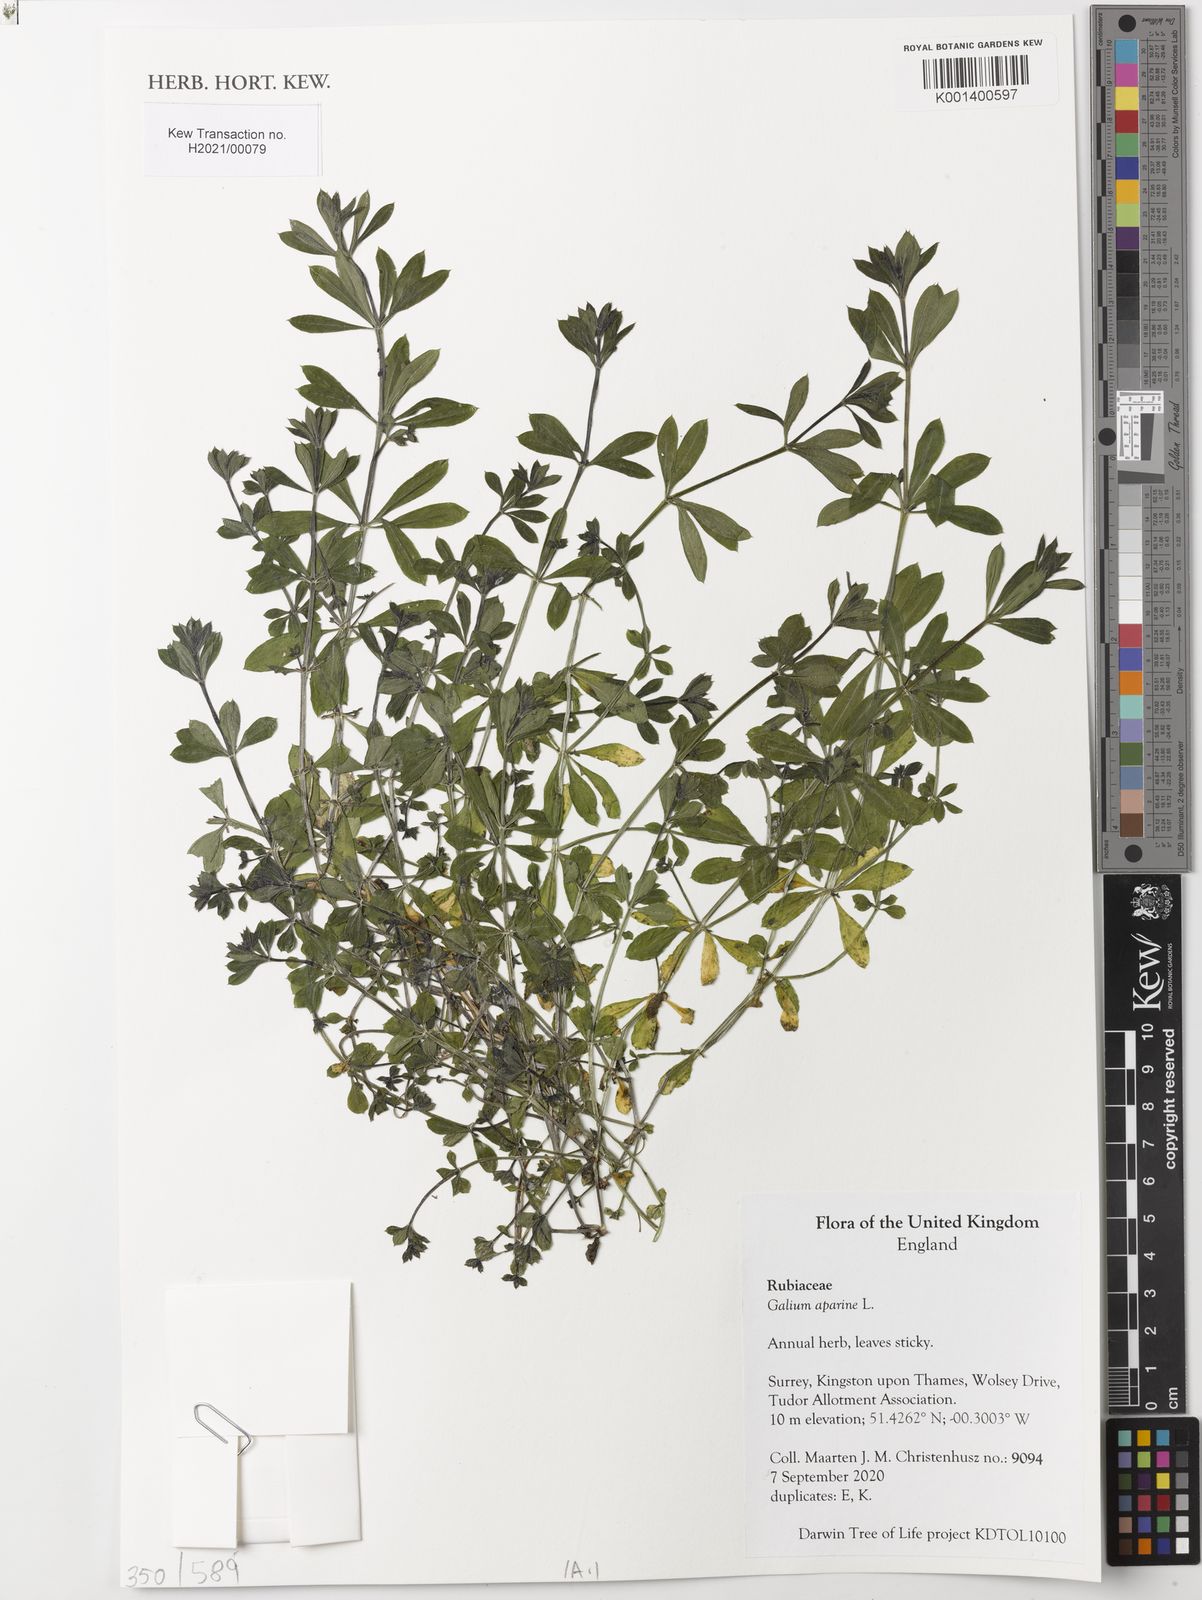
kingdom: Plantae
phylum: Tracheophyta
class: Magnoliopsida
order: Gentianales
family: Rubiaceae
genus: Galium
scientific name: Galium aparine
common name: Cleavers
